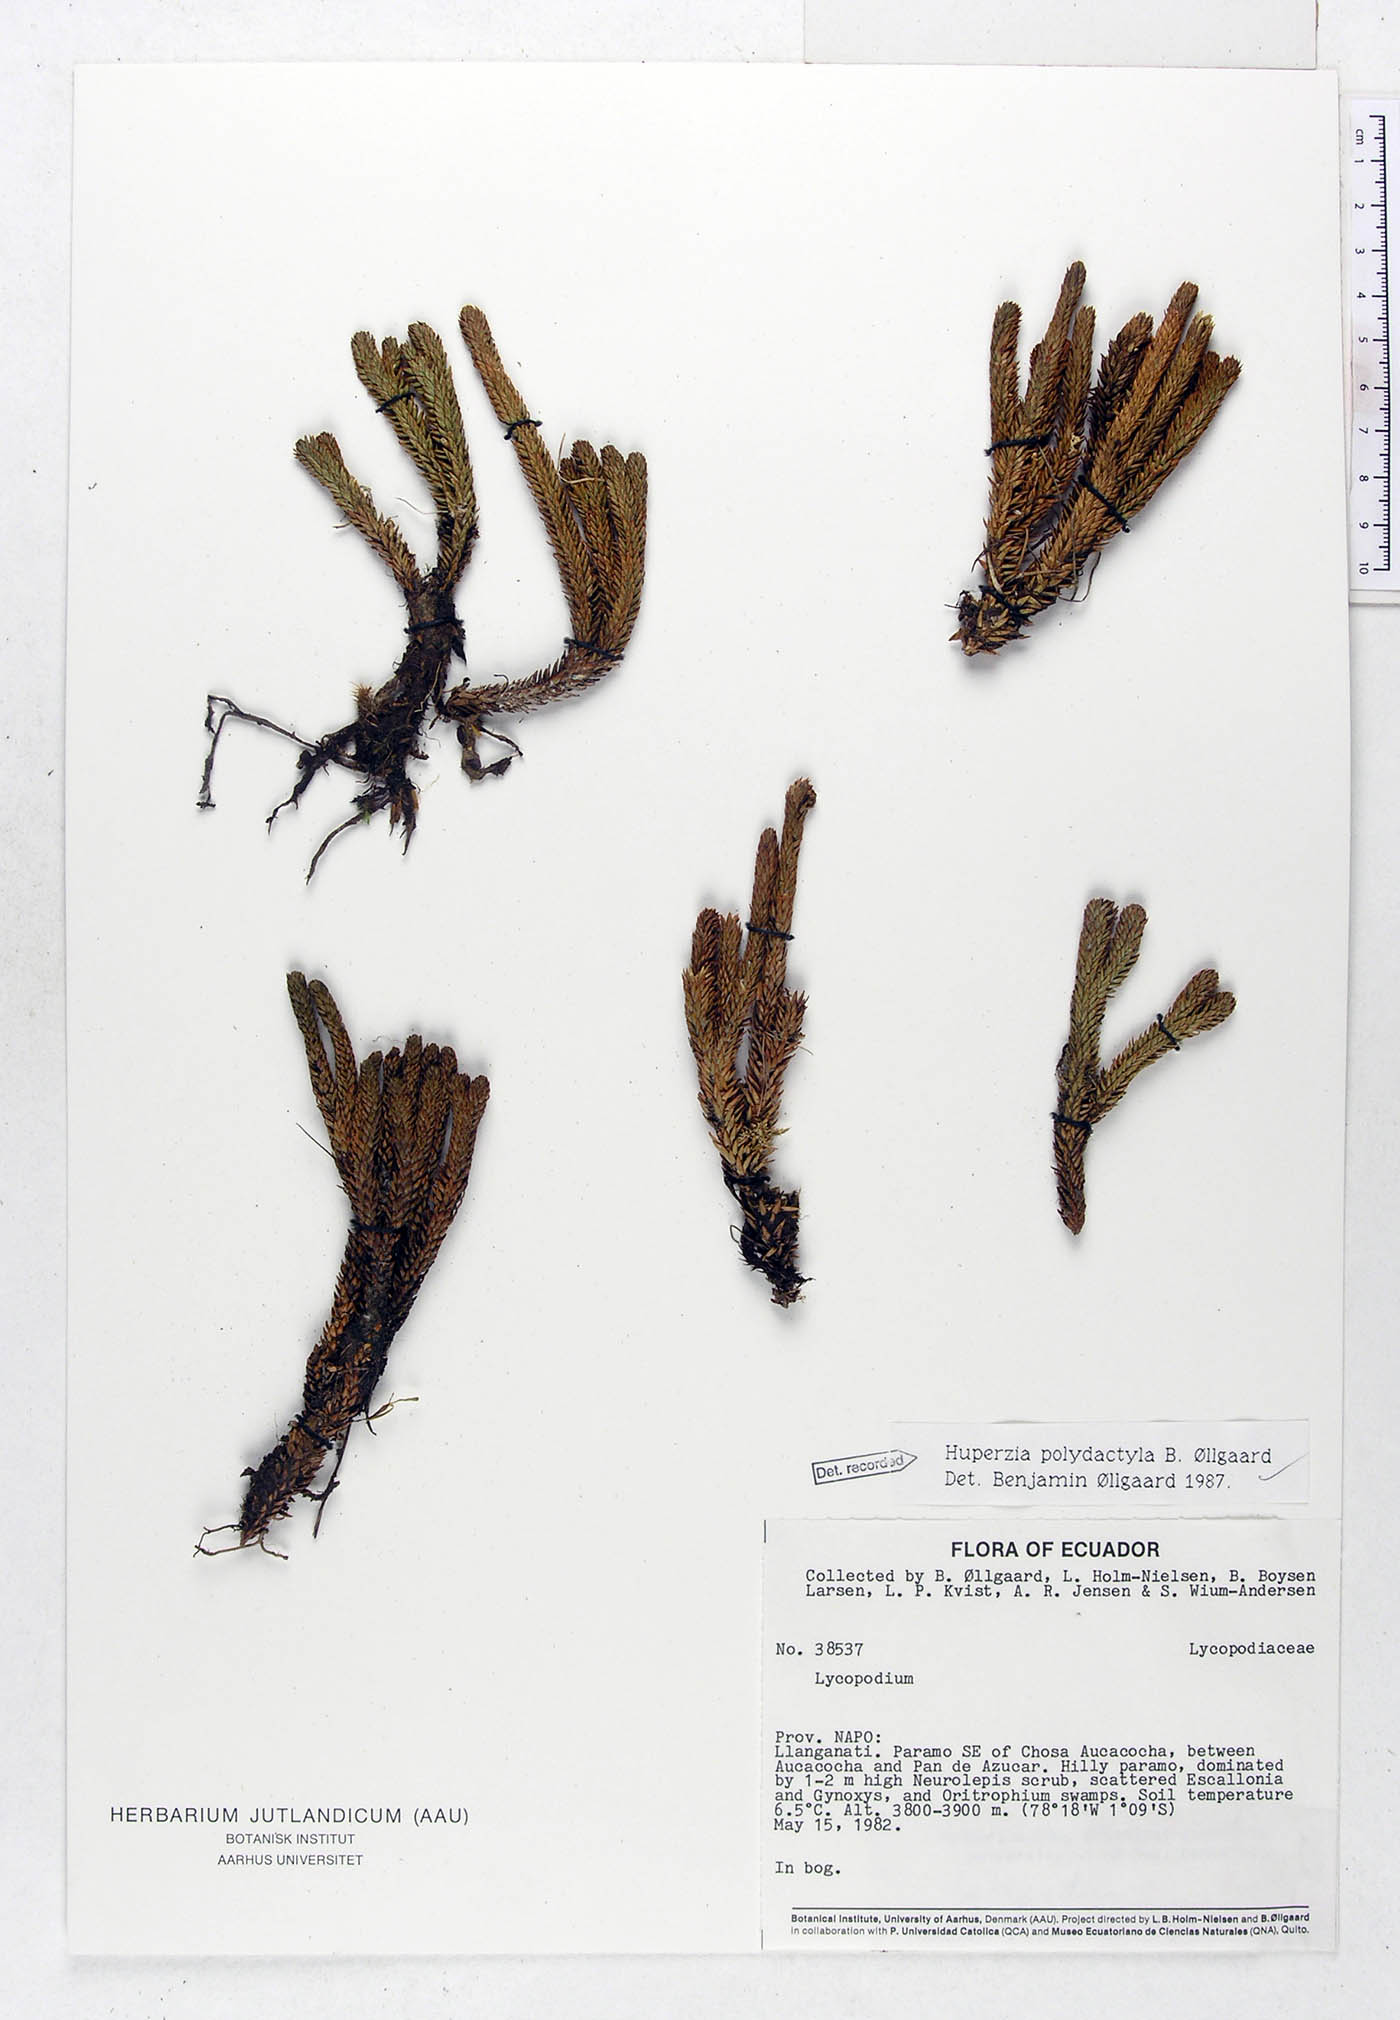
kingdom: Plantae
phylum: Tracheophyta
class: Lycopodiopsida
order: Lycopodiales
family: Lycopodiaceae
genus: Phlegmariurus
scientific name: Phlegmariurus polydactylus
